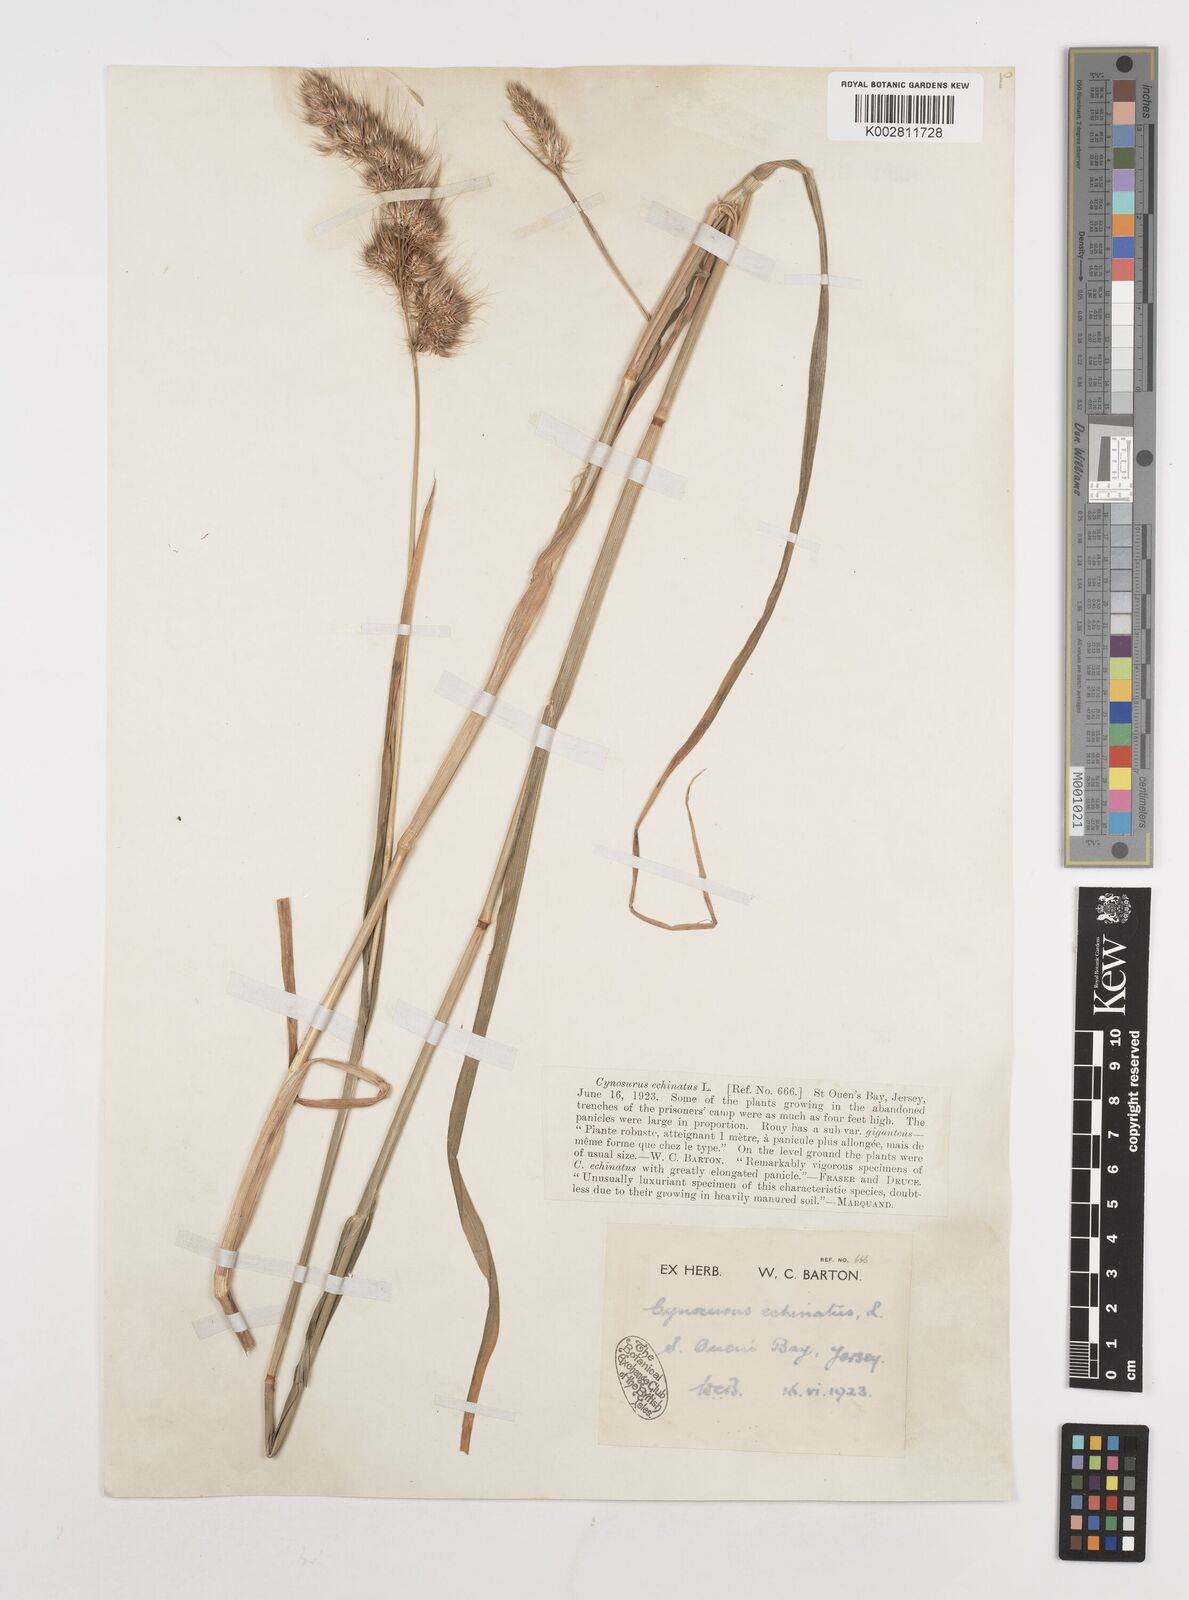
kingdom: Plantae
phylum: Tracheophyta
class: Liliopsida
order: Poales
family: Poaceae
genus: Cynosurus
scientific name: Cynosurus echinatus
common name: Rough dog's-tail
